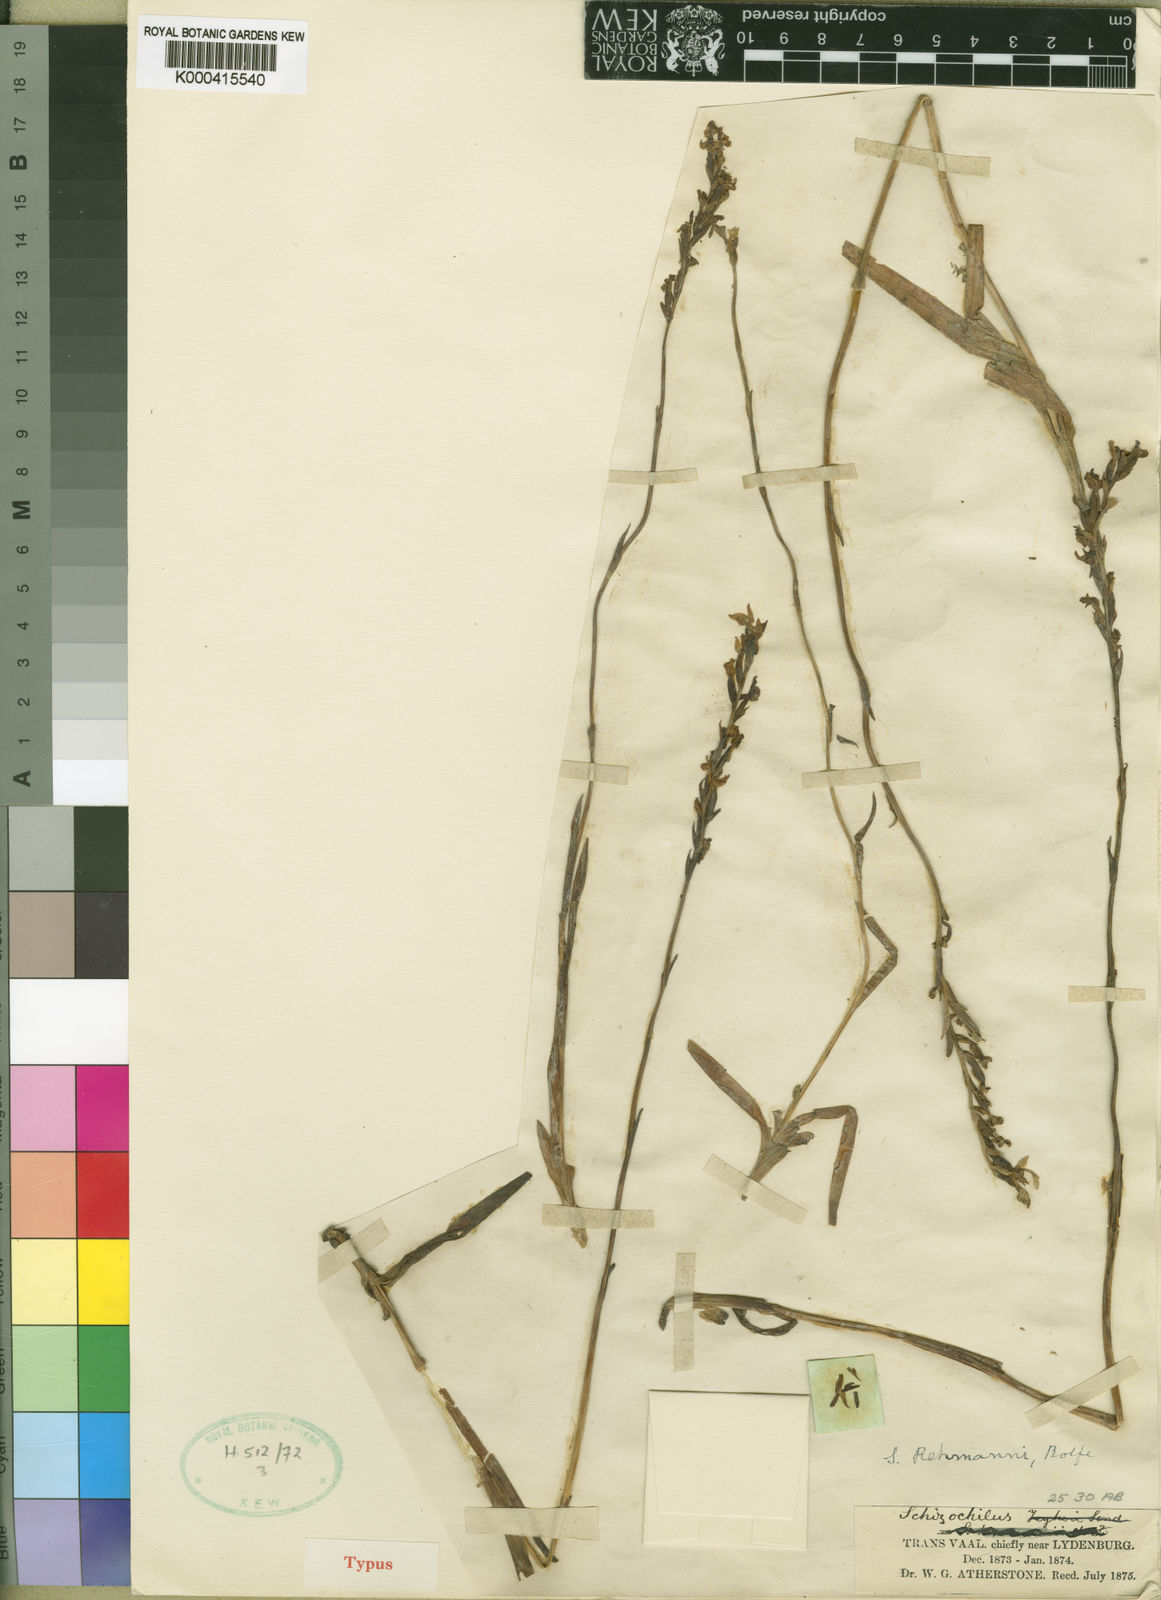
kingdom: Plantae
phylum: Tracheophyta
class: Liliopsida
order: Asparagales
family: Orchidaceae
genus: Schizochilus
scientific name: Schizochilus zeyheri
